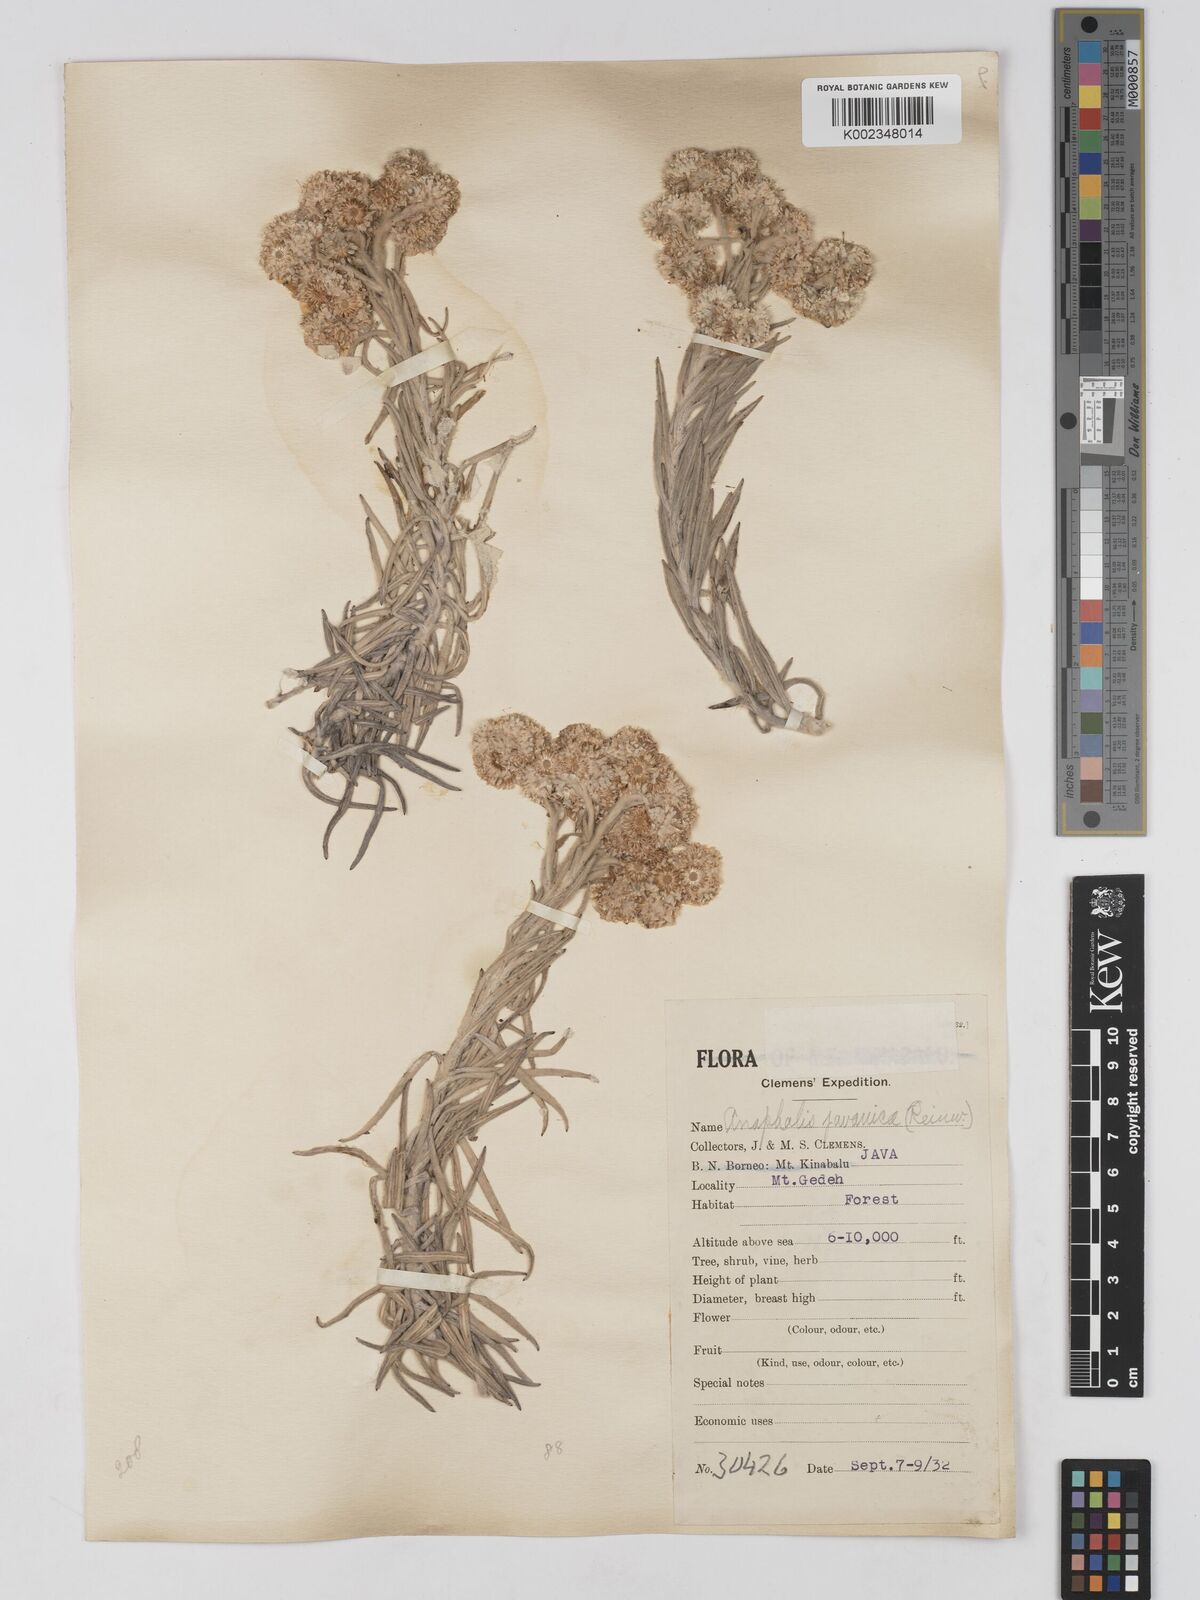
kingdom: Plantae
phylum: Tracheophyta
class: Magnoliopsida
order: Asterales
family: Asteraceae
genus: Anaphalis
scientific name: Anaphalis javanica
